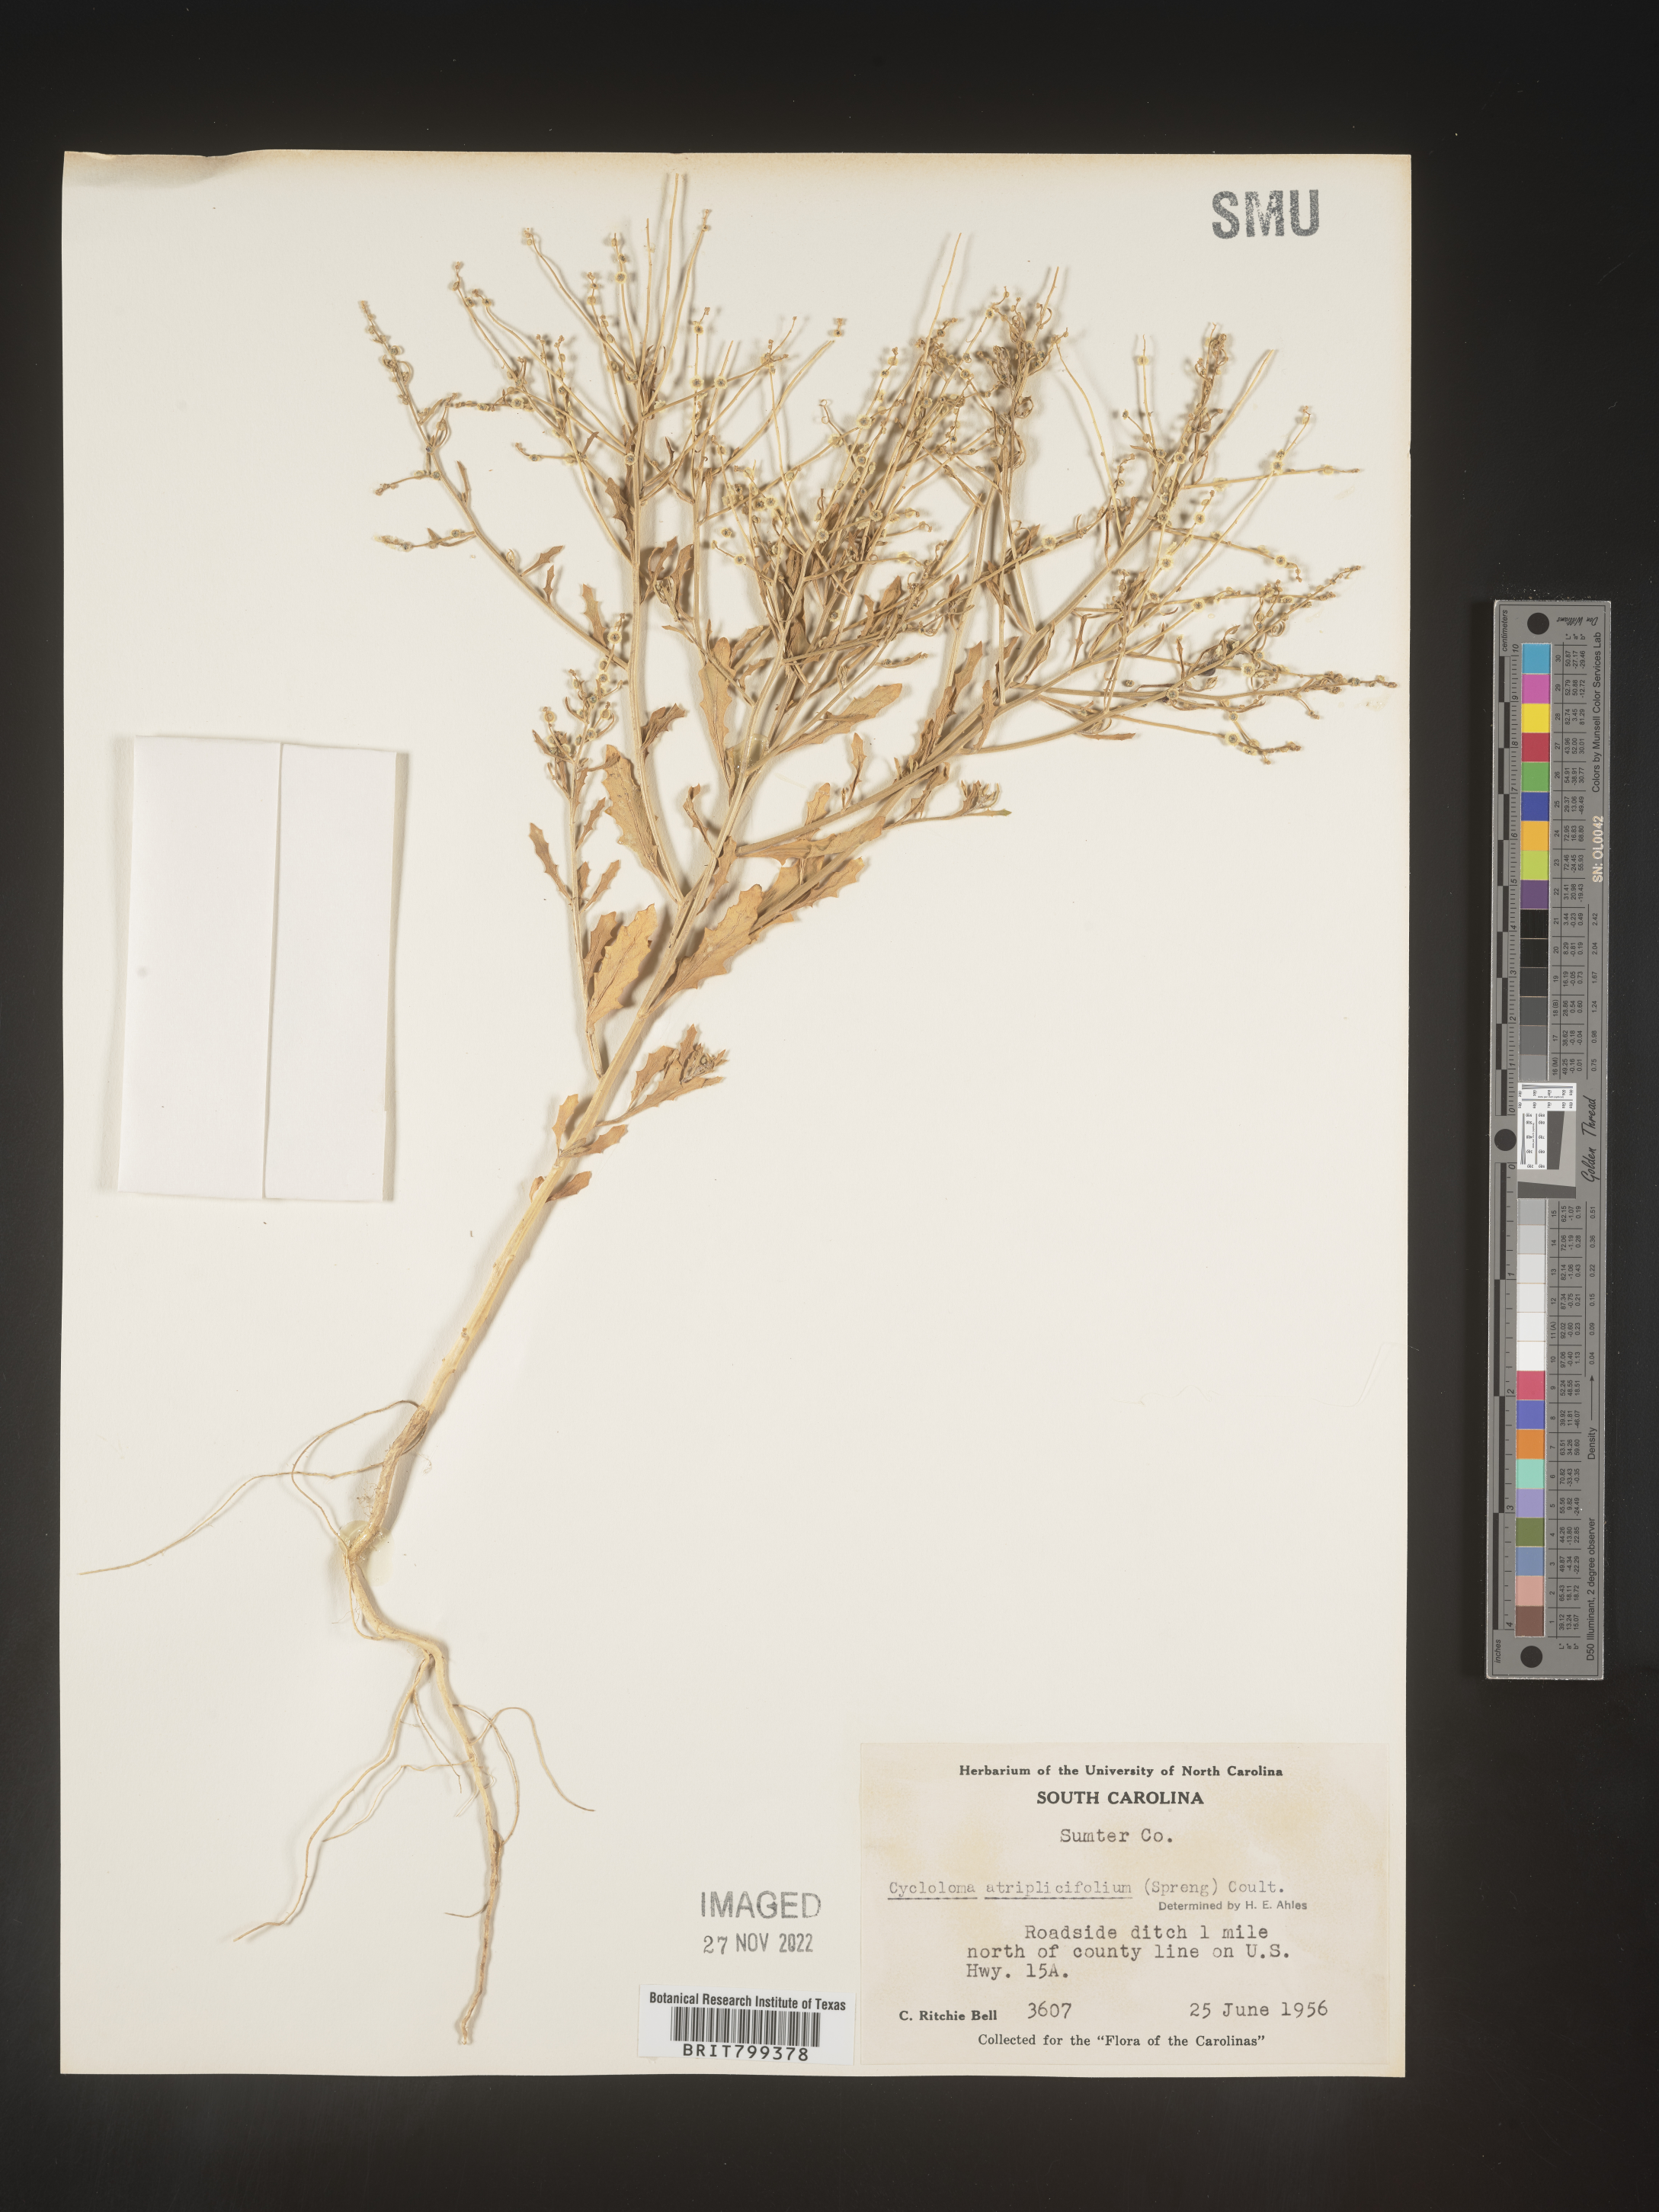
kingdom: Plantae
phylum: Tracheophyta
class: Magnoliopsida
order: Caryophyllales
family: Amaranthaceae
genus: Dysphania
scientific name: Dysphania atriplicifolia
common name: Plains tumbleweed
